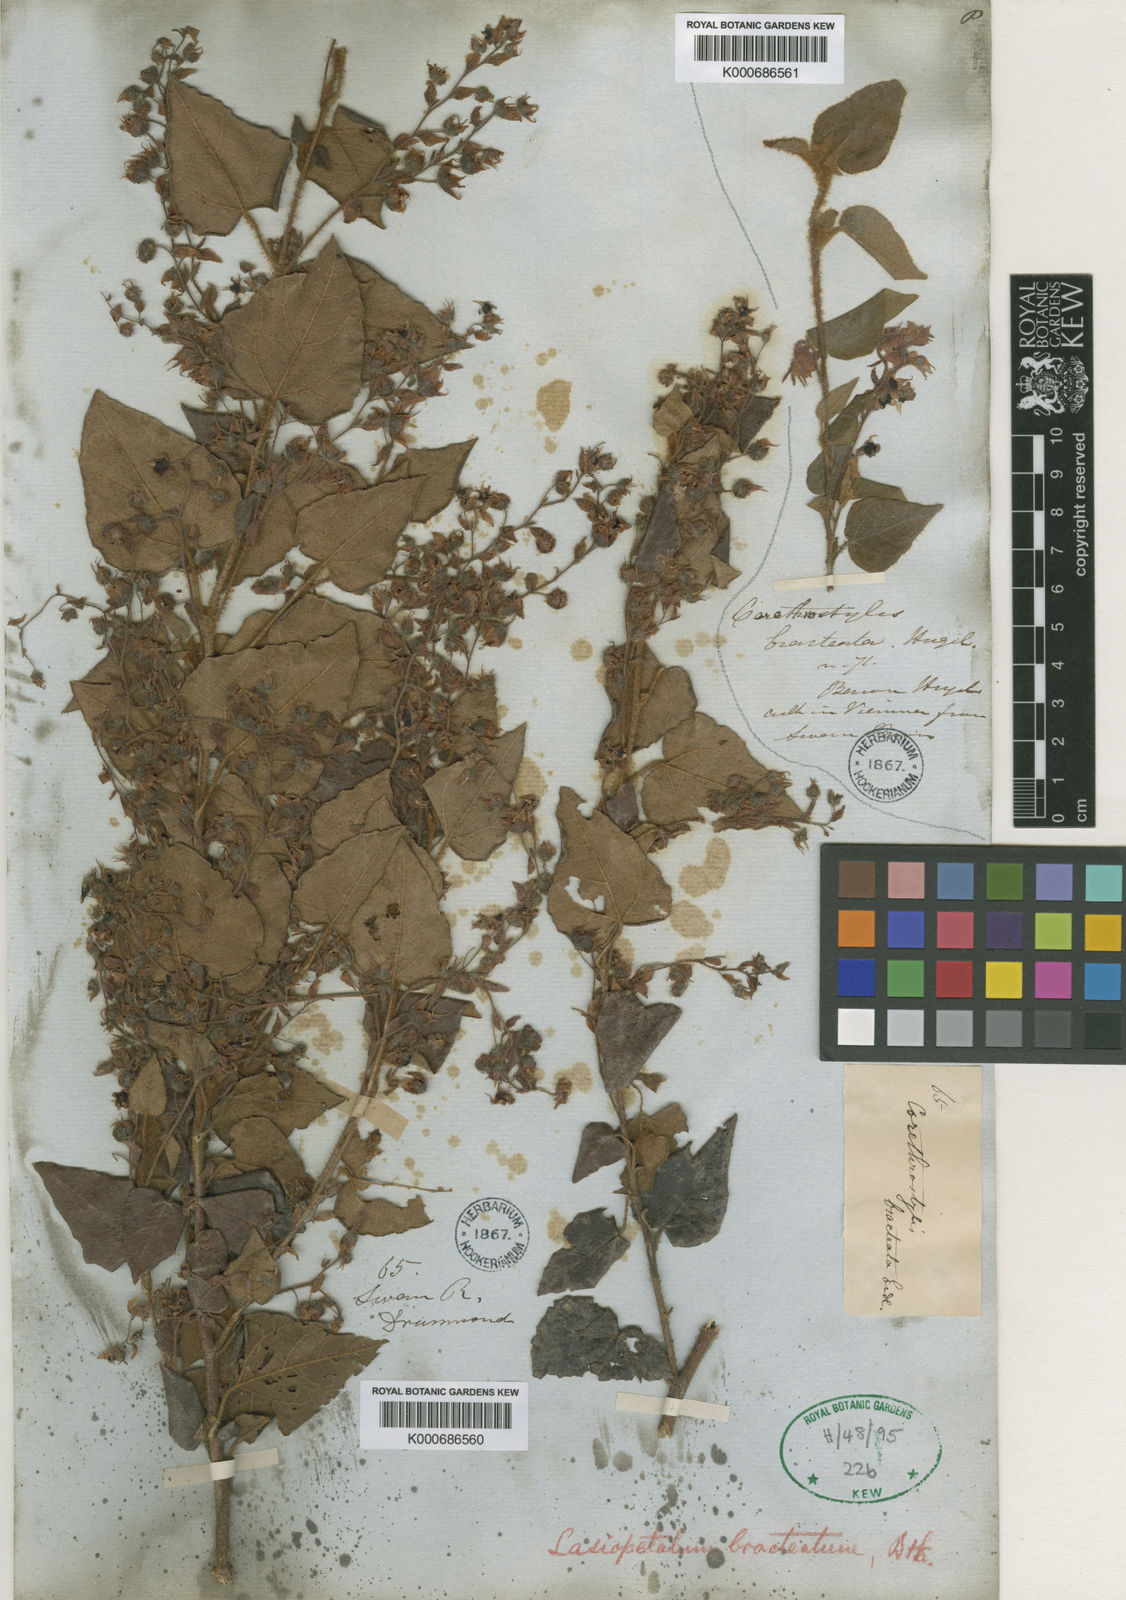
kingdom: Plantae
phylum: Tracheophyta
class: Magnoliopsida
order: Malvales
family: Malvaceae
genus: Lasiopetalum
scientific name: Lasiopetalum bracteatum
